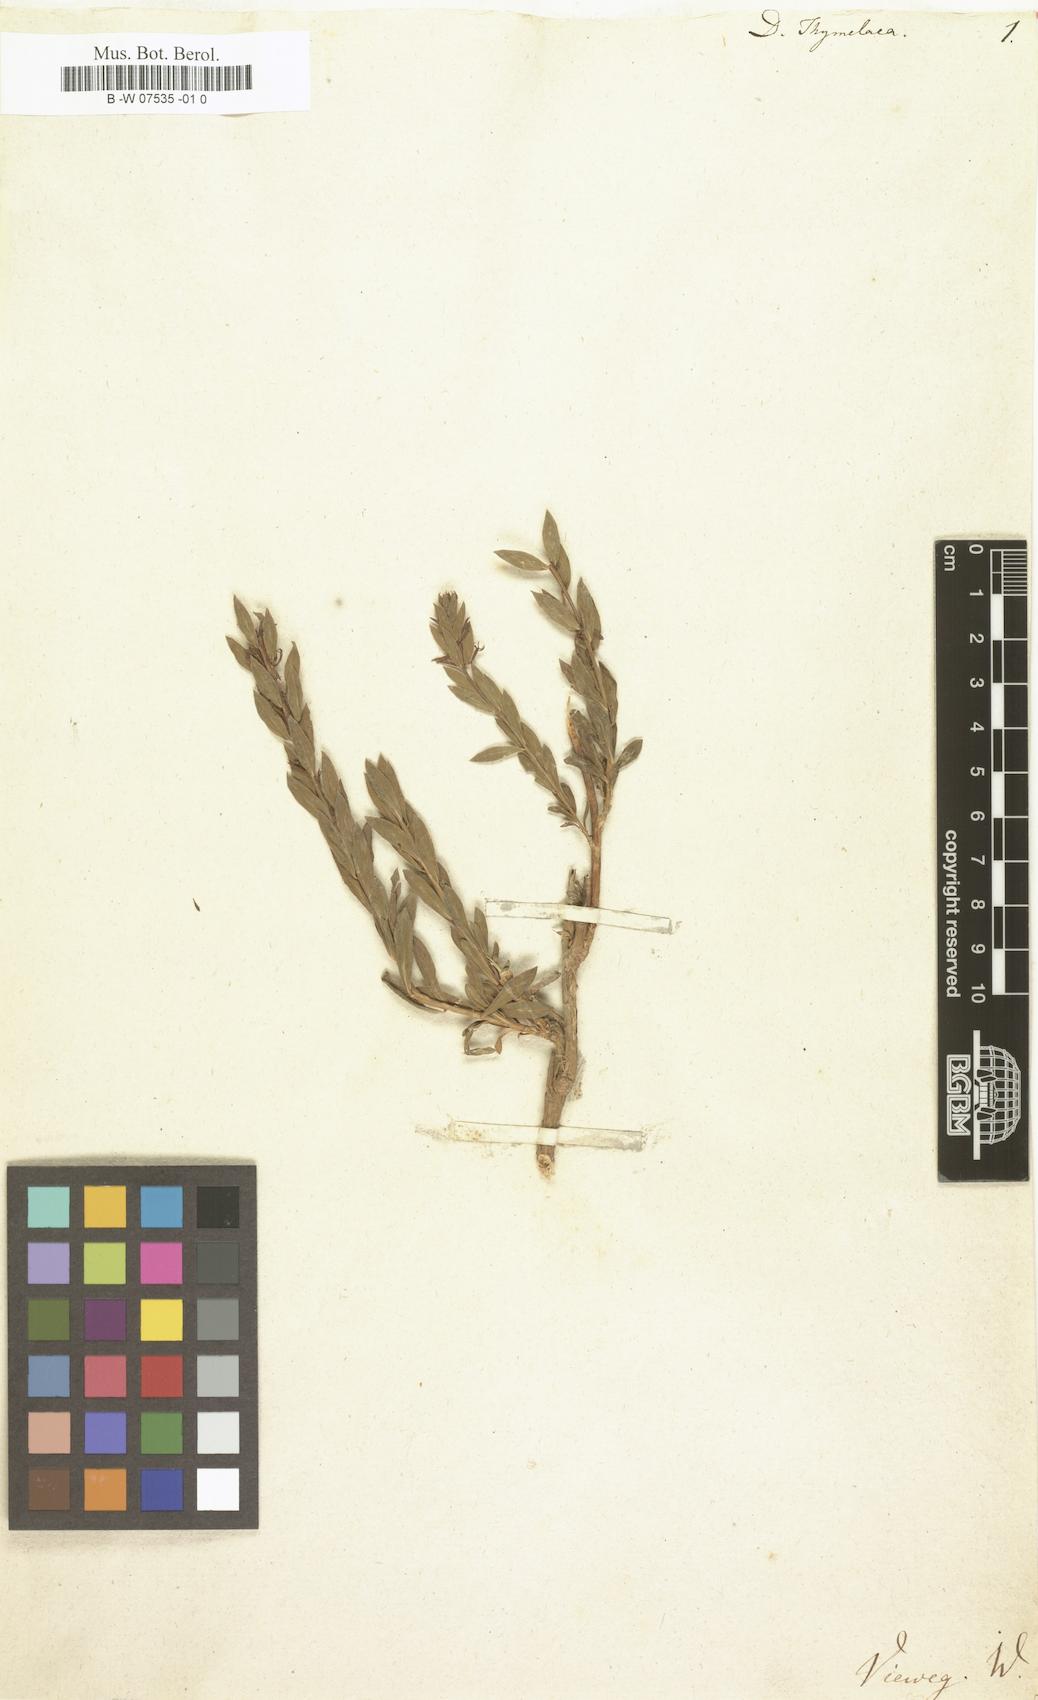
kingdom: Plantae
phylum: Tracheophyta
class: Magnoliopsida
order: Malvales
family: Thymelaeaceae
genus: Thymelaea
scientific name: Thymelaea sanamunda
